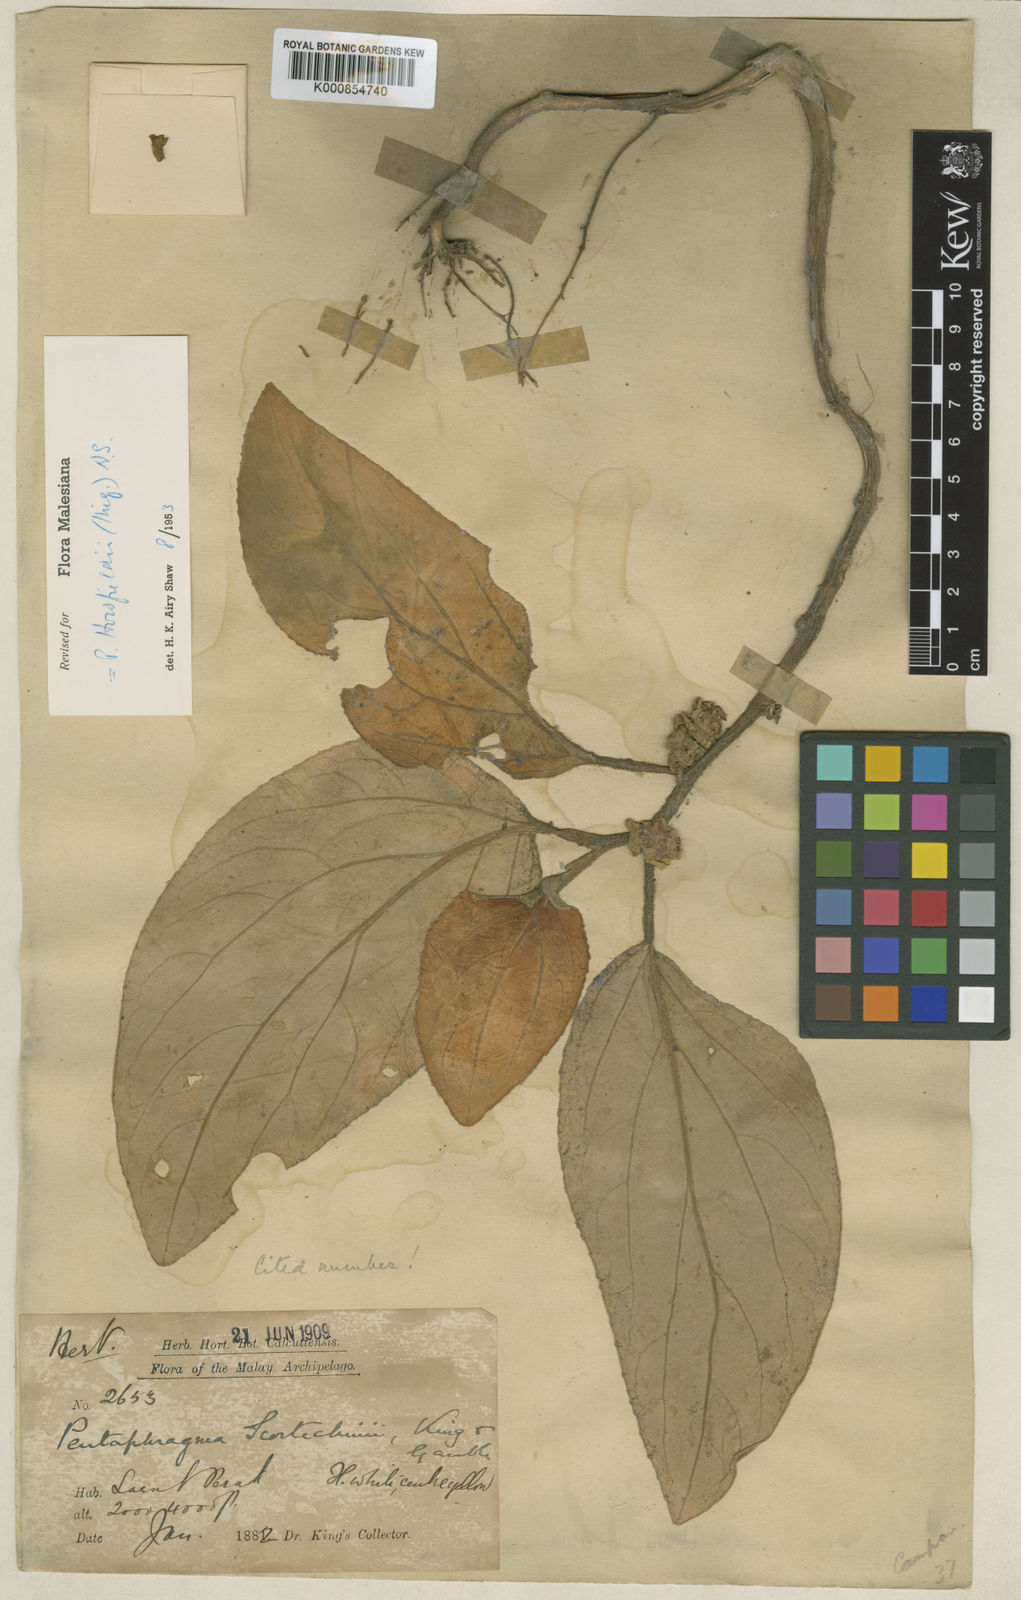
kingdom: Plantae
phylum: Tracheophyta
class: Magnoliopsida
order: Asterales
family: Pentaphragmataceae
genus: Pentaphragma
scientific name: Pentaphragma horsfieldii
